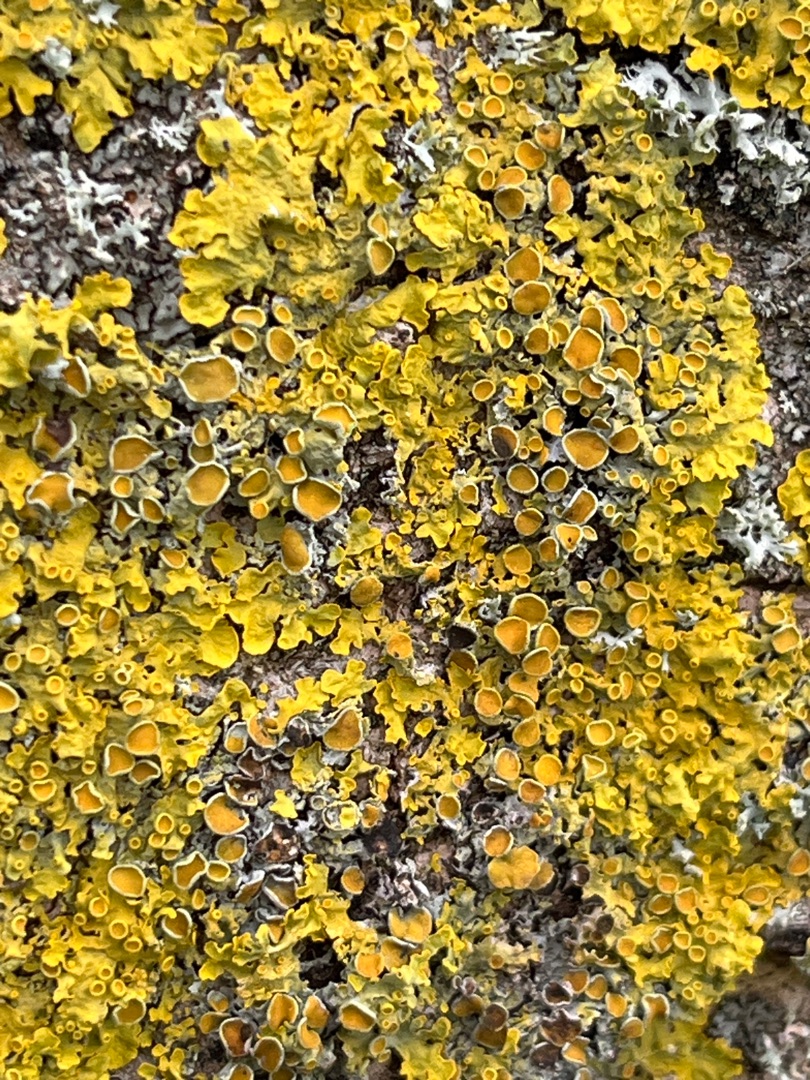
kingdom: Fungi
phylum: Ascomycota
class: Lecanoromycetes
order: Teloschistales
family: Teloschistaceae
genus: Xanthoria
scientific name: Xanthoria parietina
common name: Almindelig væggelav
